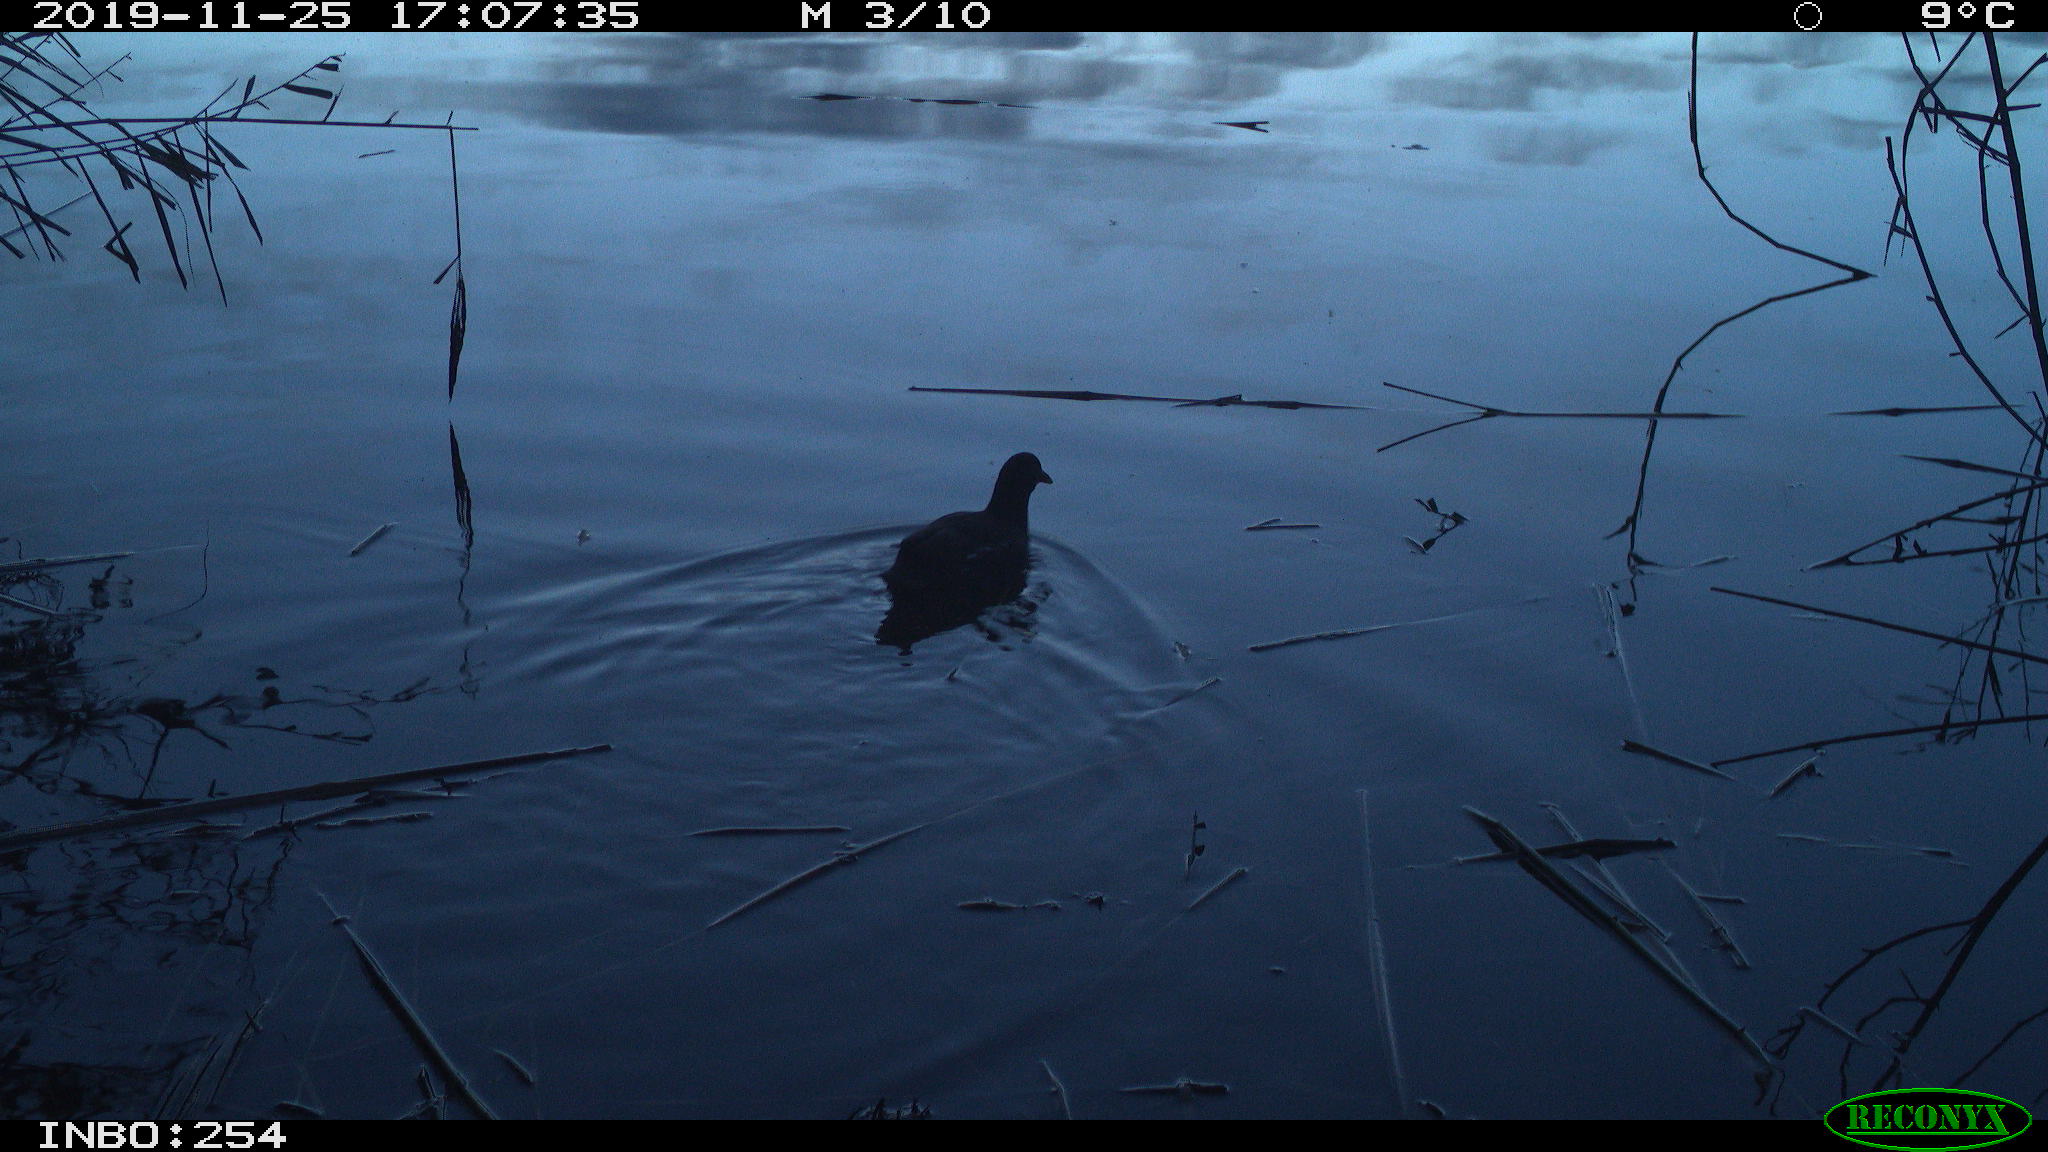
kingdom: Animalia
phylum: Chordata
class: Aves
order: Gruiformes
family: Rallidae
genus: Gallinula
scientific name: Gallinula chloropus
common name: Common moorhen
